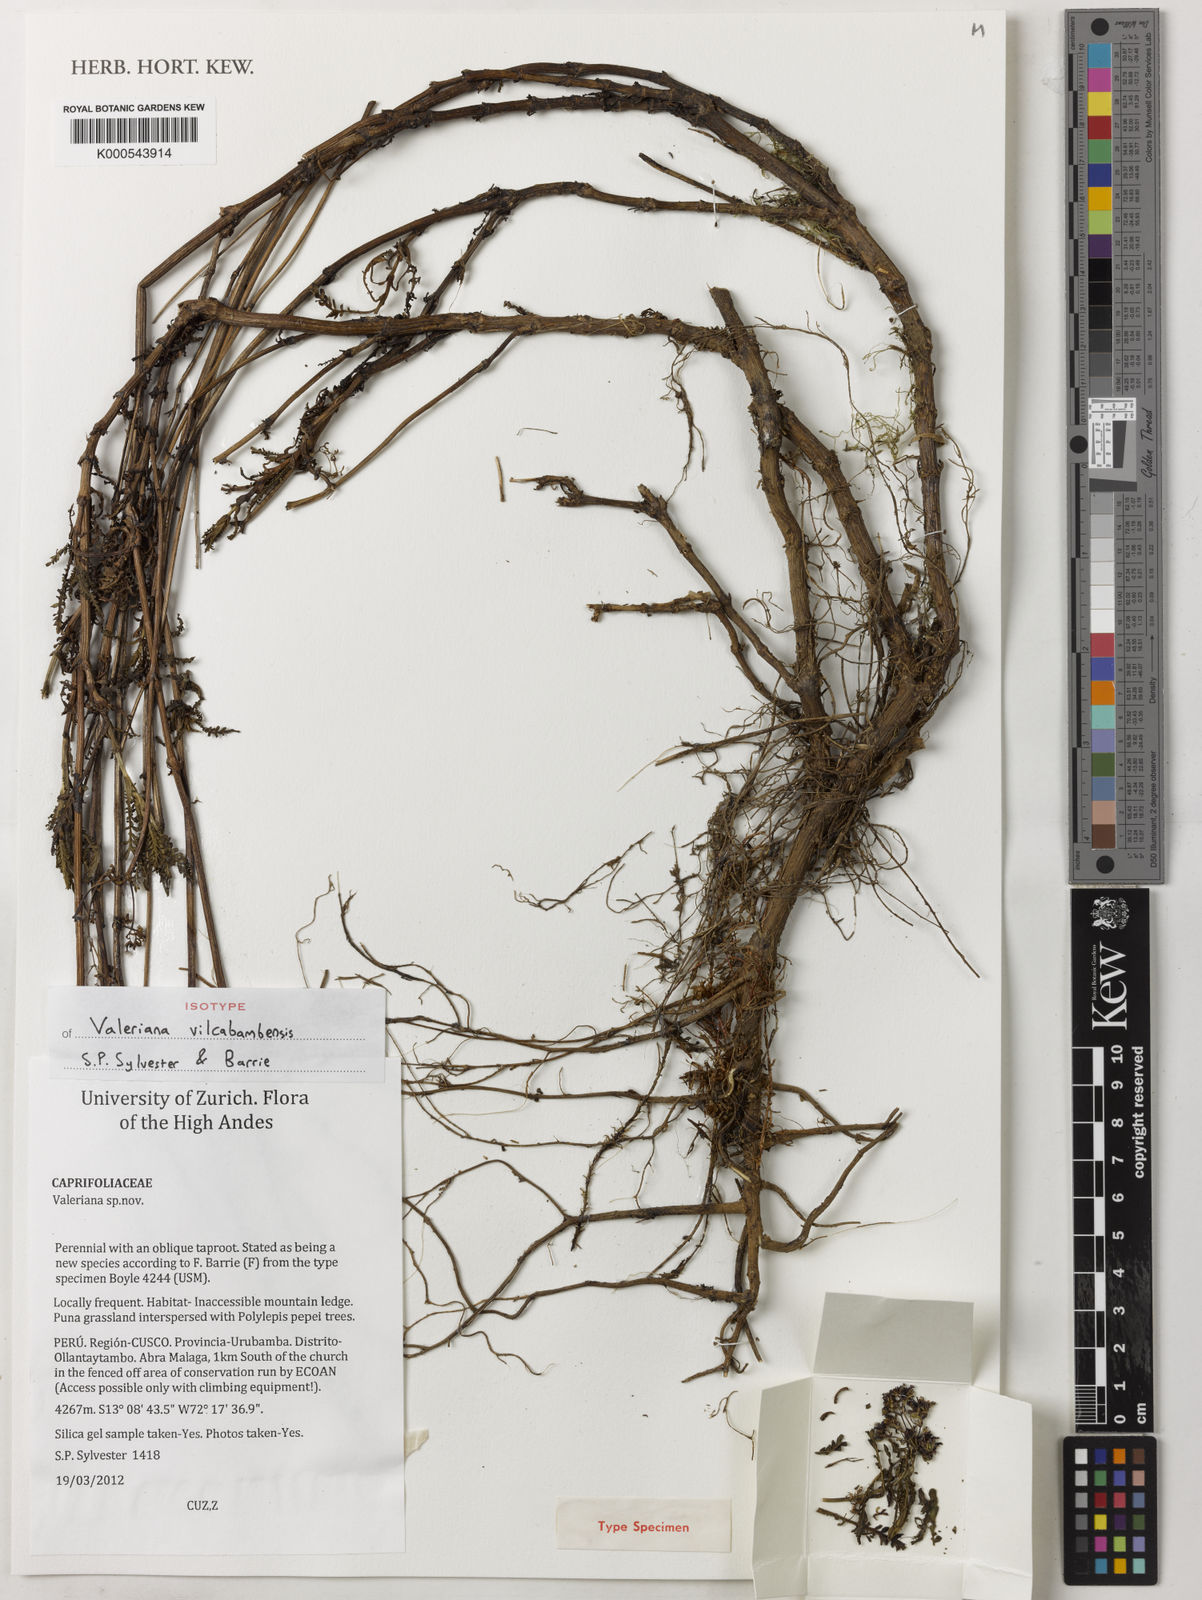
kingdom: Plantae
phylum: Tracheophyta
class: Magnoliopsida
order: Dipsacales
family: Caprifoliaceae
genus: Valeriana
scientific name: Valeriana
